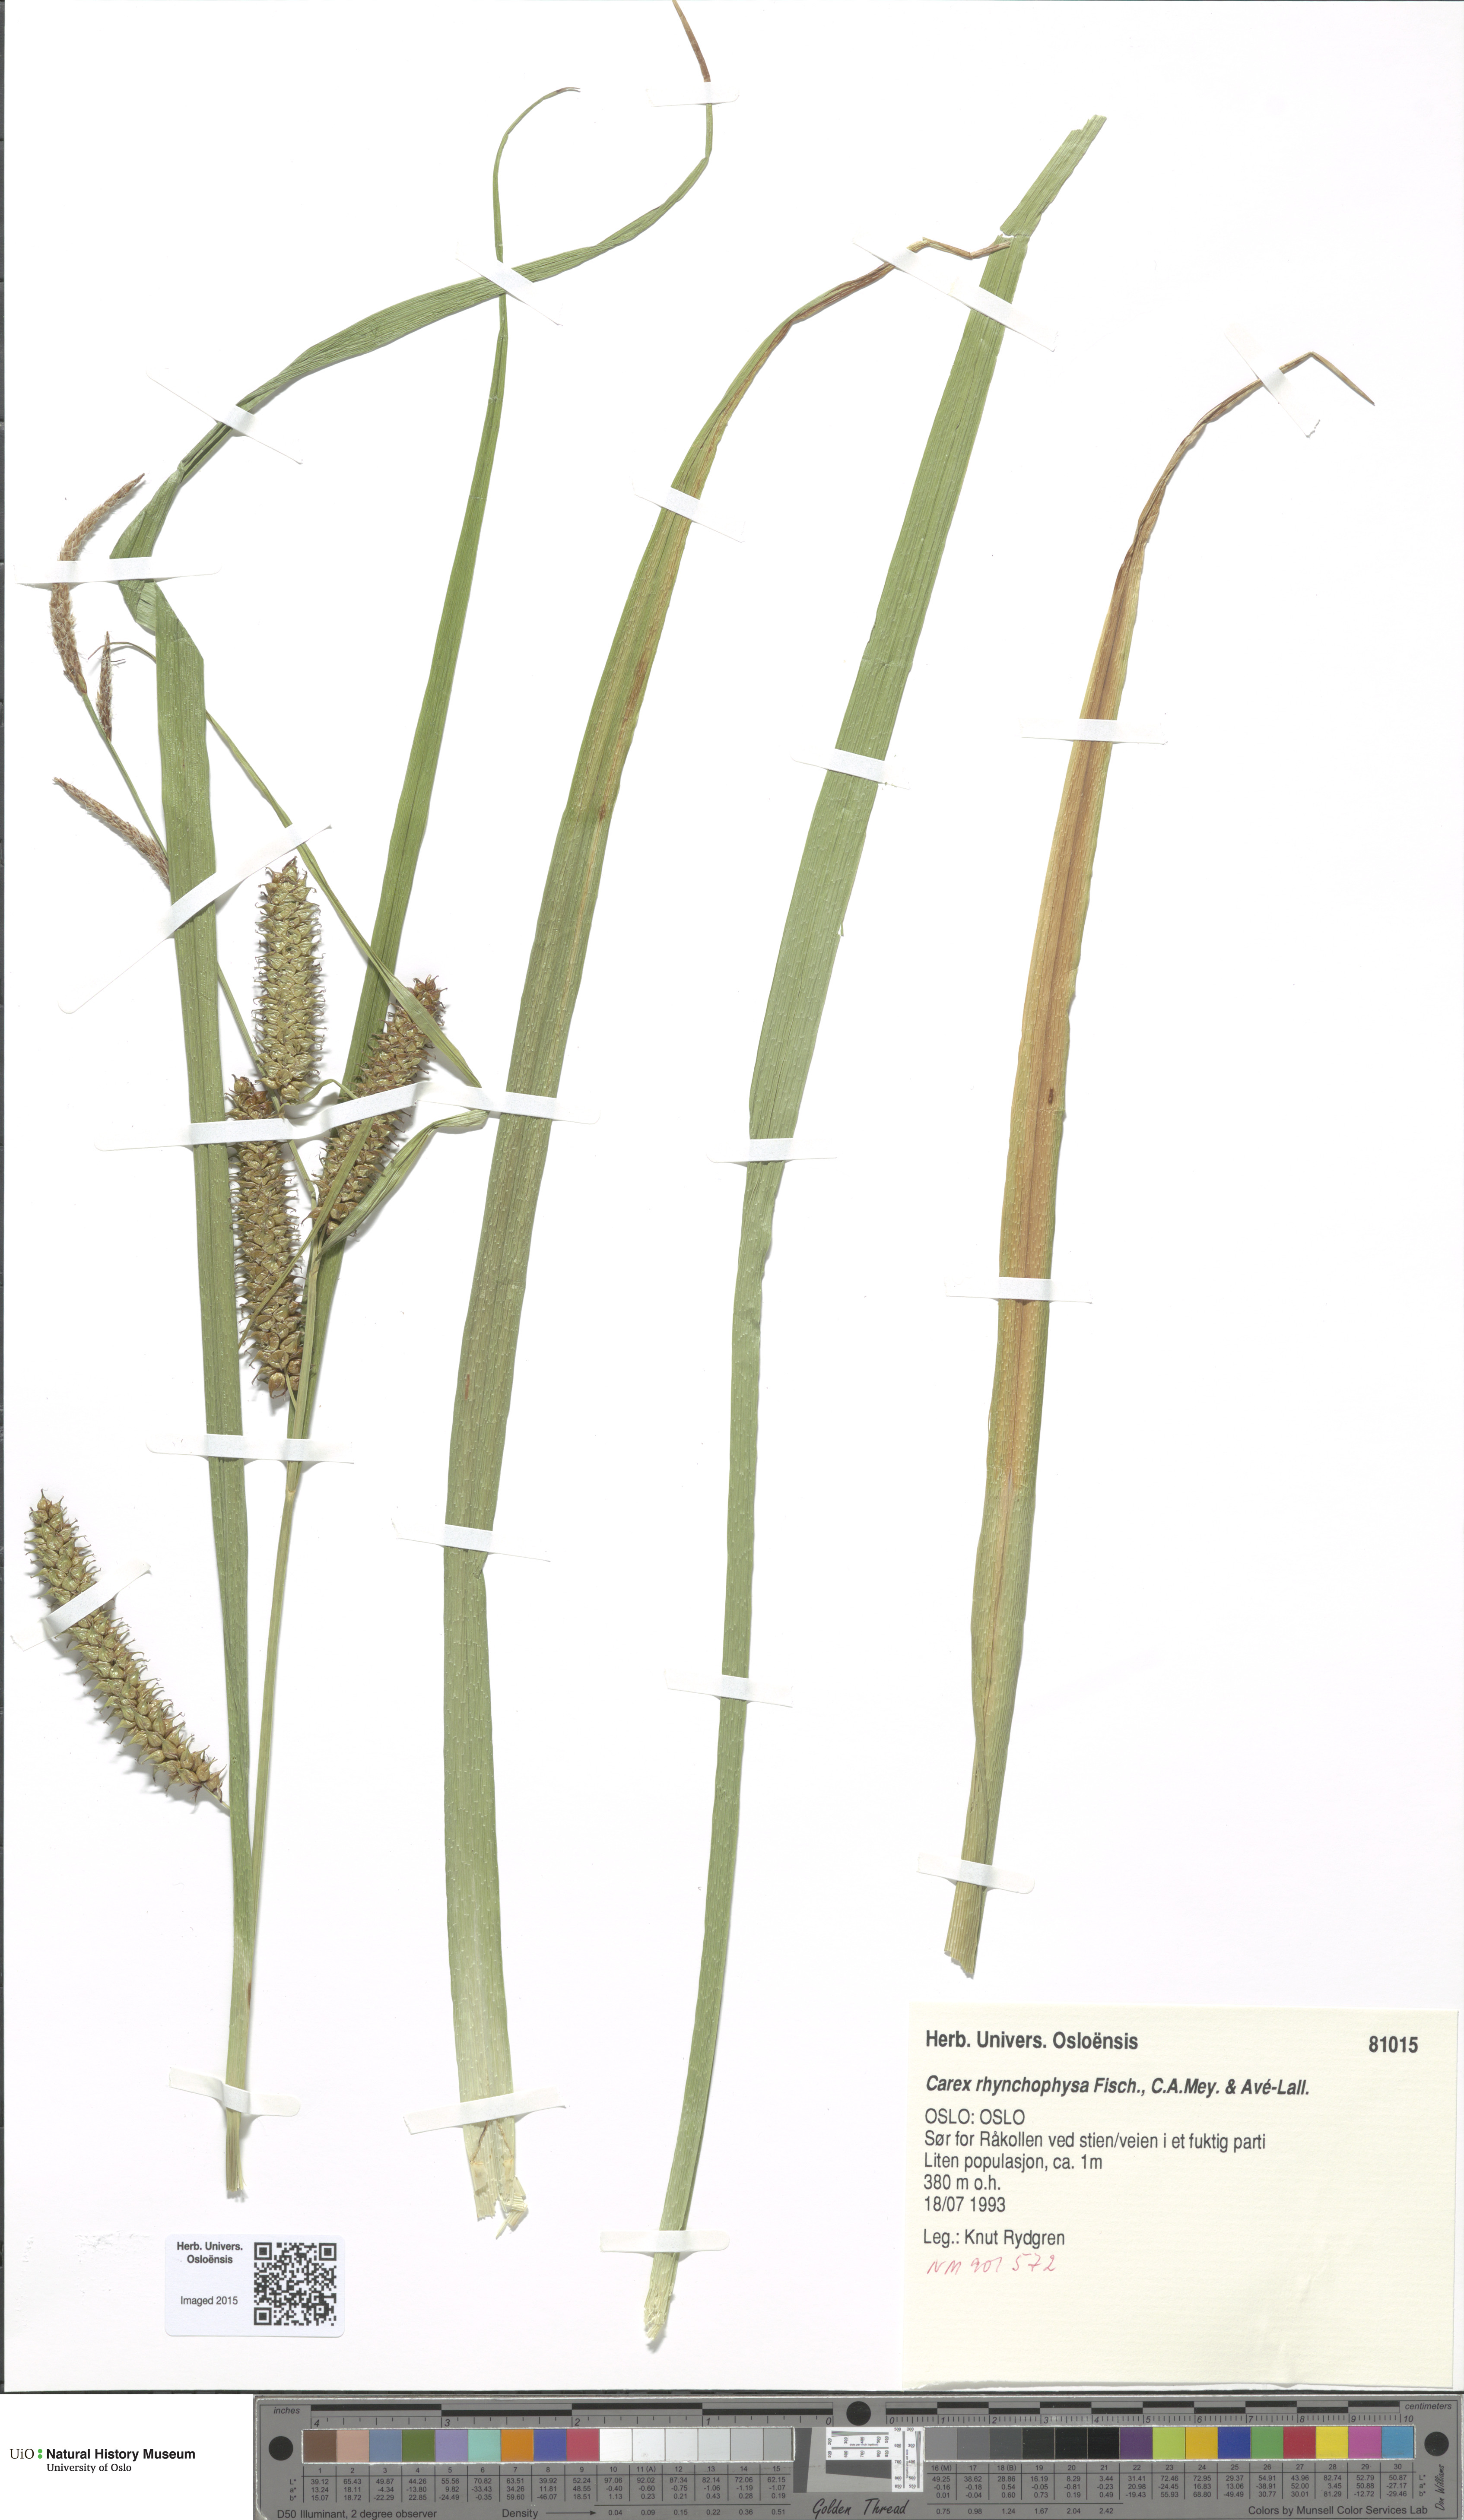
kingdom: Plantae
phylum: Tracheophyta
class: Liliopsida
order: Poales
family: Cyperaceae
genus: Carex
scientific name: Carex utriculata
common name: Beaked sedge
